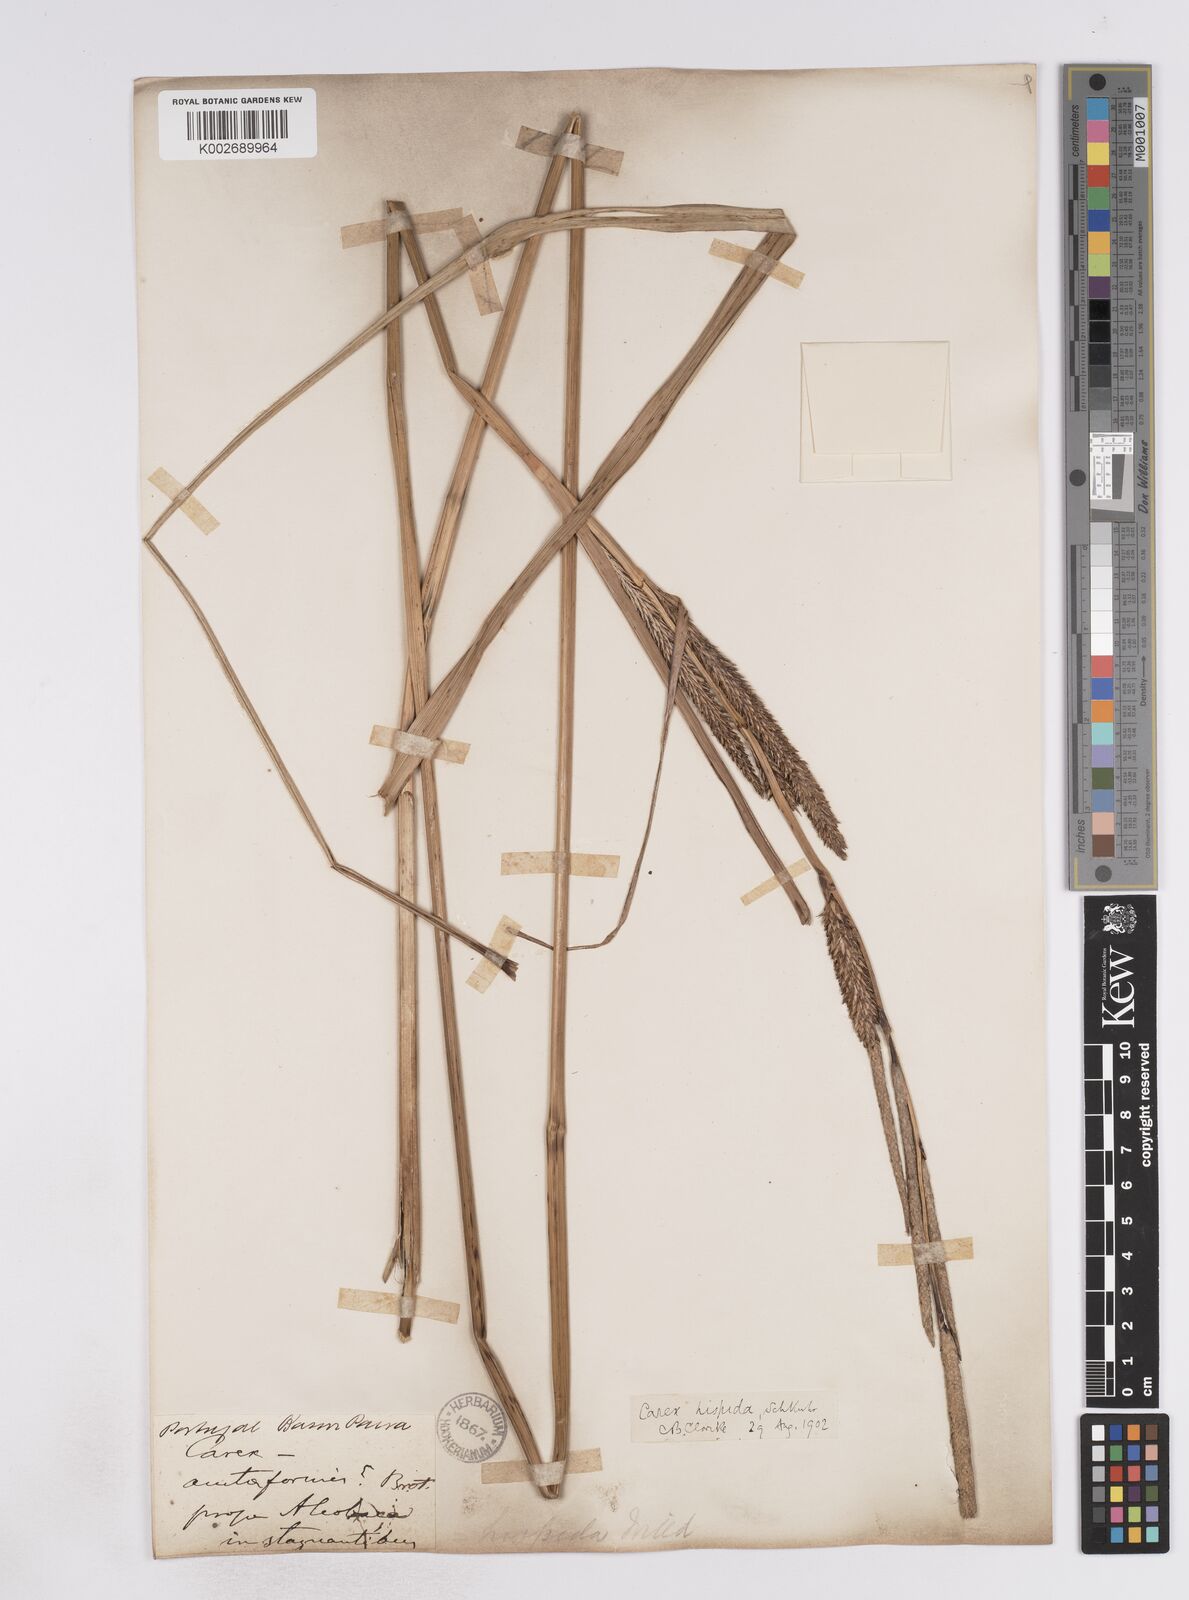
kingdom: Plantae
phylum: Tracheophyta
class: Liliopsida
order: Poales
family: Cyperaceae
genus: Carex
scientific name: Carex hispida
